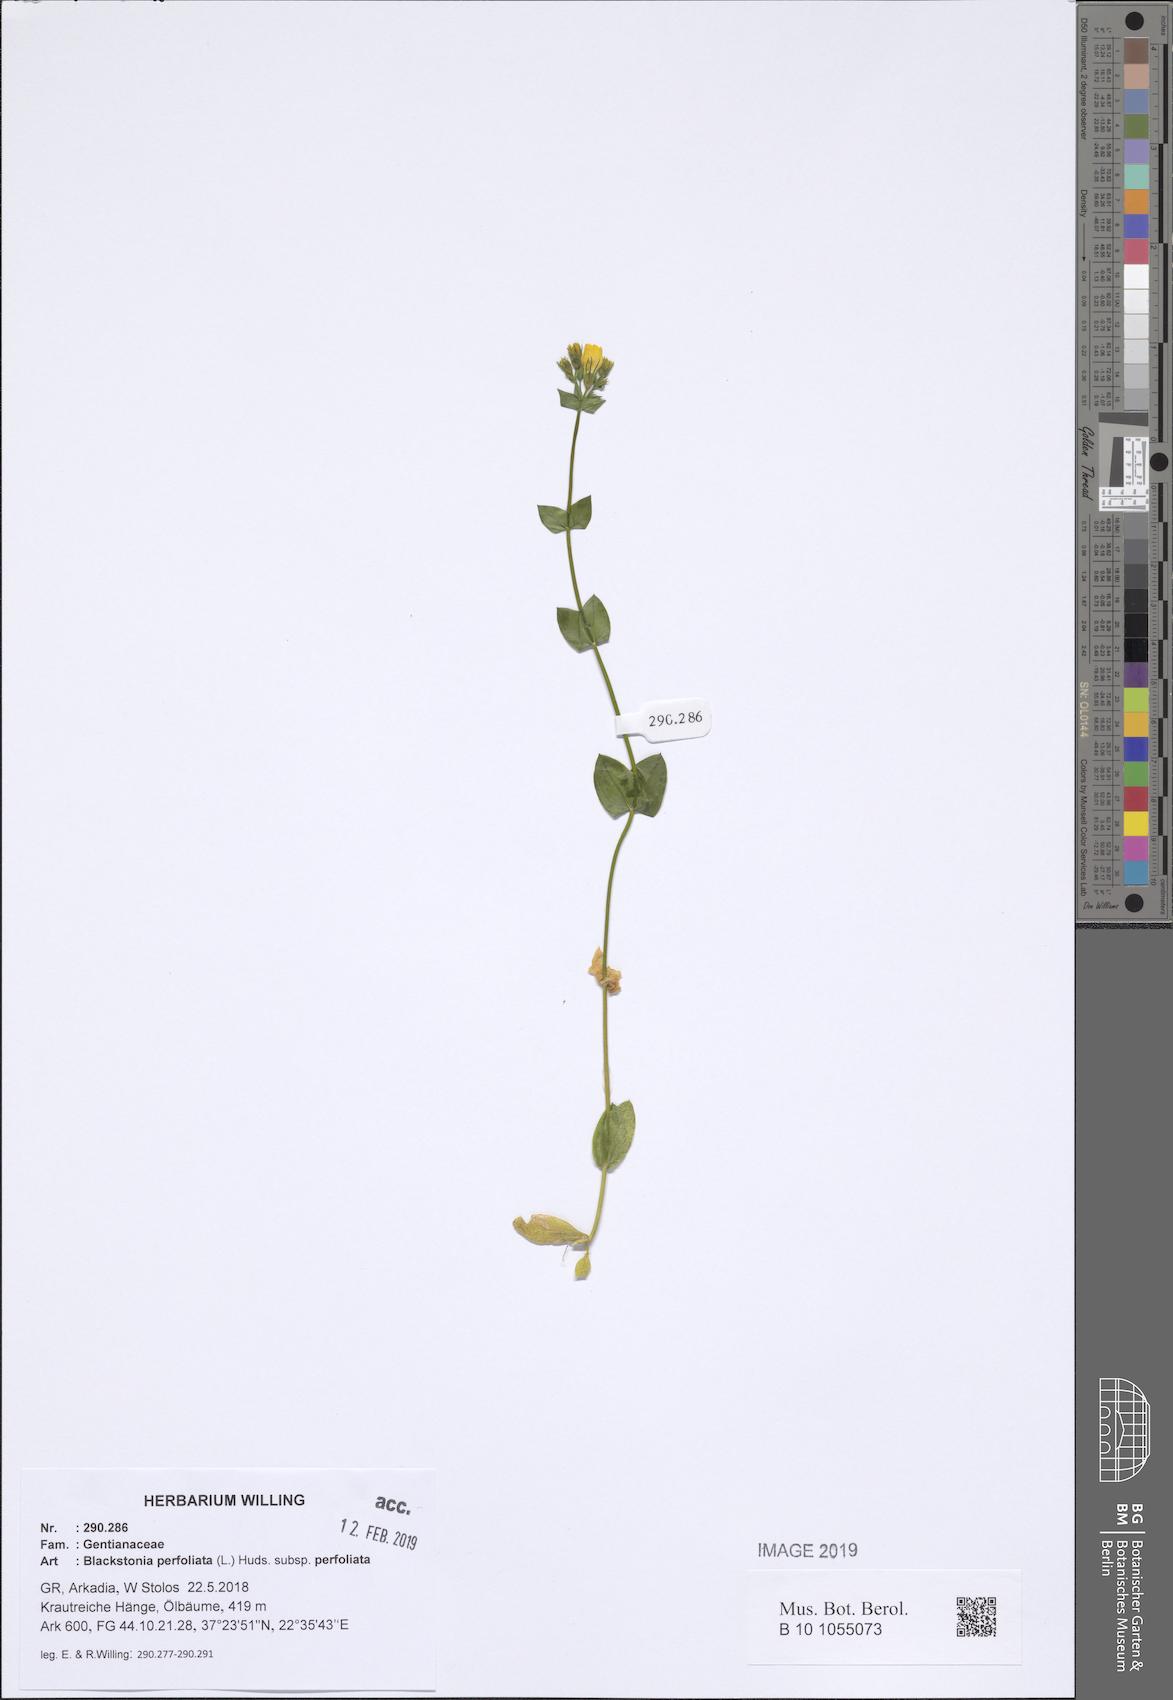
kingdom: Plantae
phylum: Tracheophyta
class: Magnoliopsida
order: Gentianales
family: Gentianaceae
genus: Blackstonia
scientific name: Blackstonia perfoliata
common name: Yellow-wort
